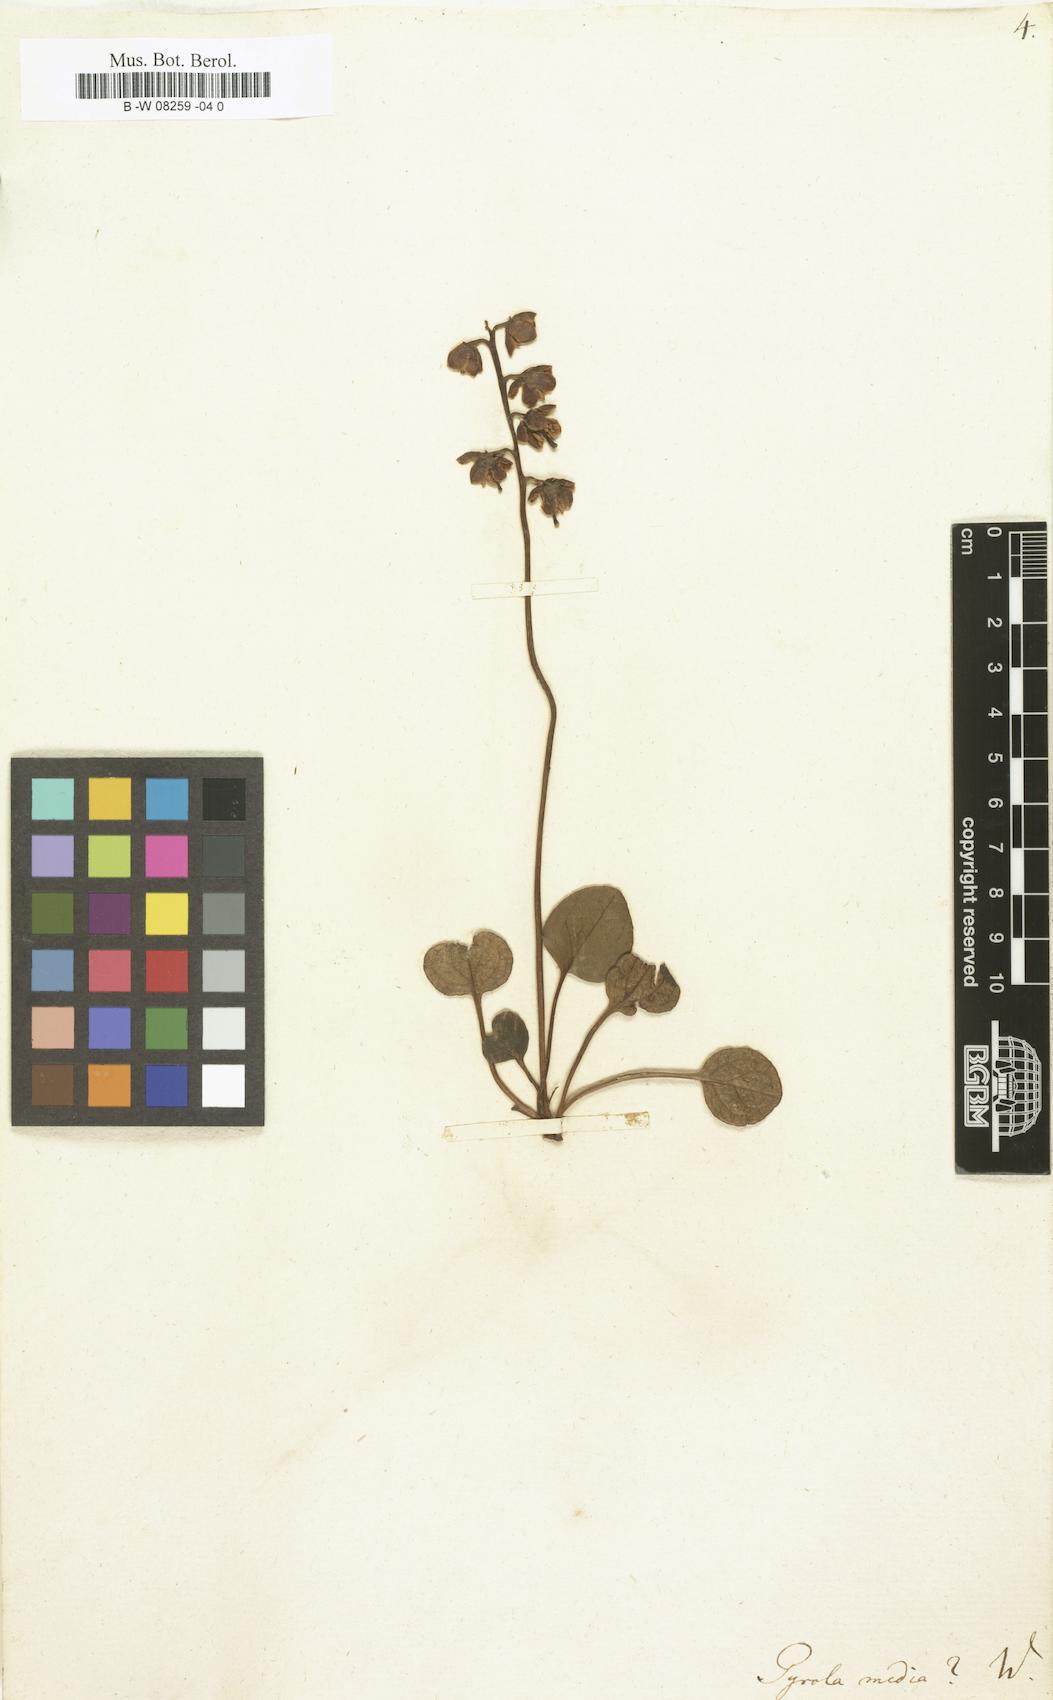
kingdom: Plantae
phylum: Tracheophyta
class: Magnoliopsida
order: Ericales
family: Ericaceae
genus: Pyrola
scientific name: Pyrola media
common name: Intermediate wintergreen
